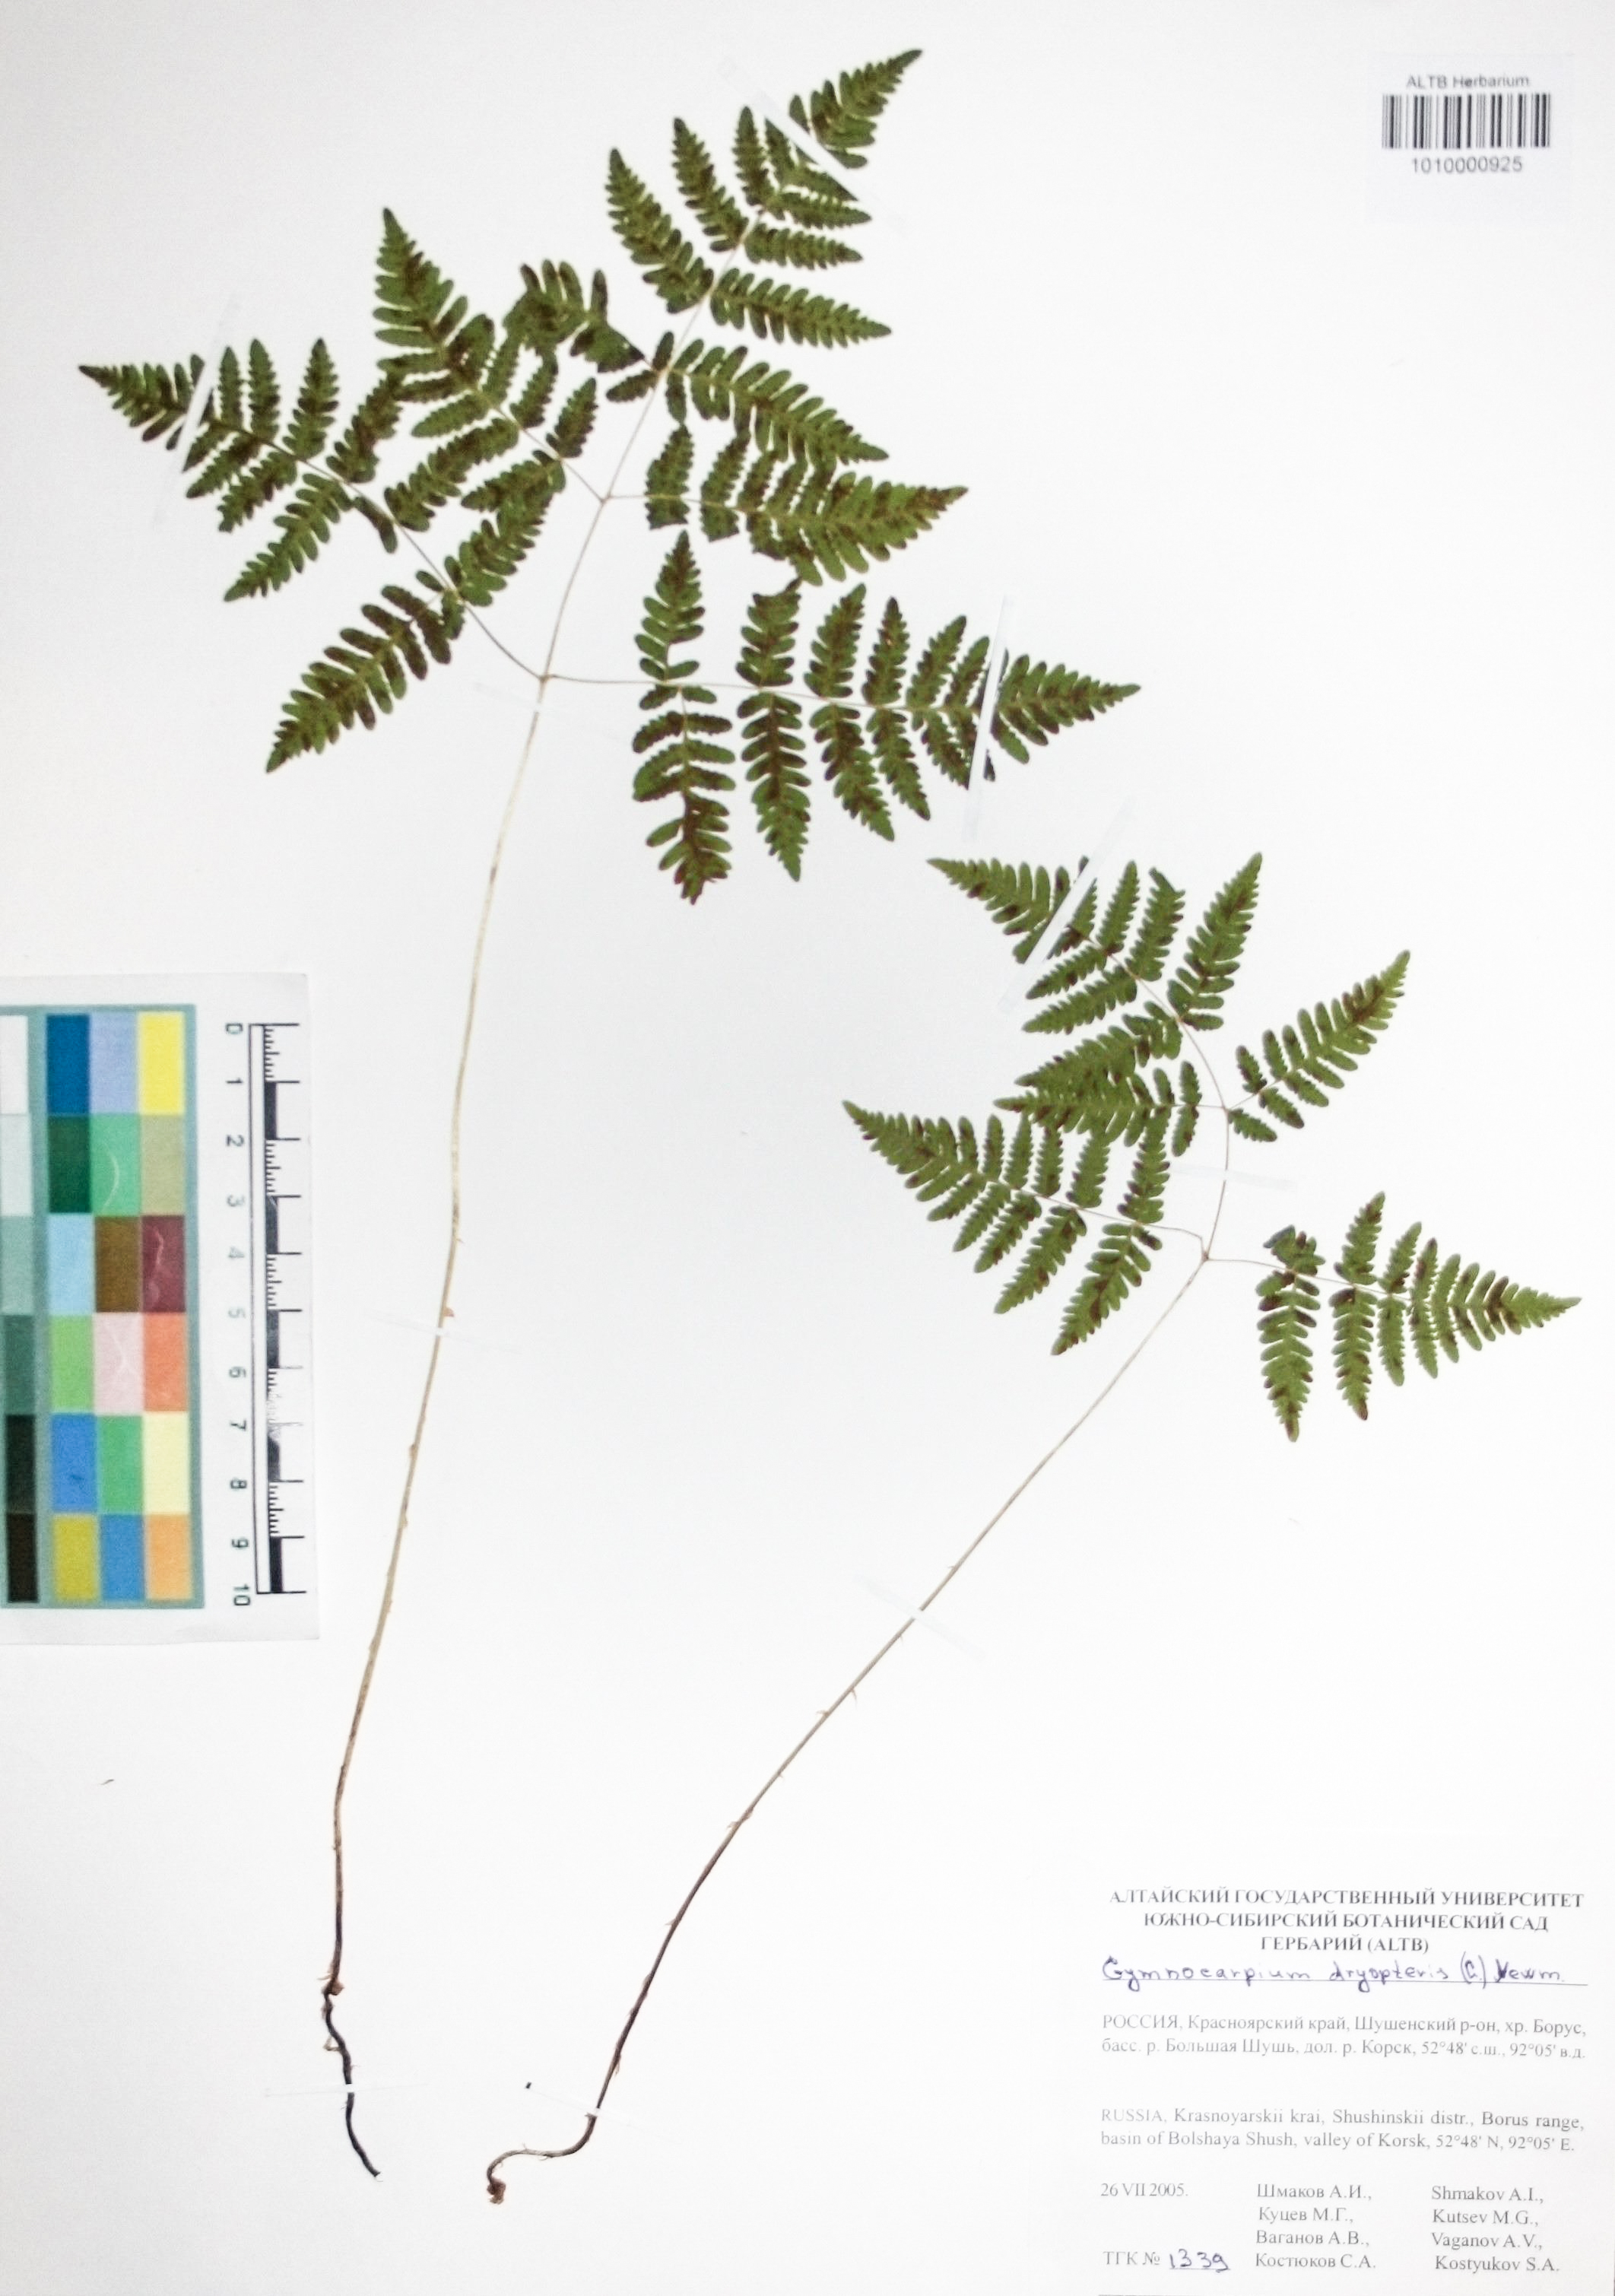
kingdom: Plantae
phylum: Tracheophyta
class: Polypodiopsida
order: Polypodiales
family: Cystopteridaceae
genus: Gymnocarpium
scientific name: Gymnocarpium dryopteris
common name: Oak fern
